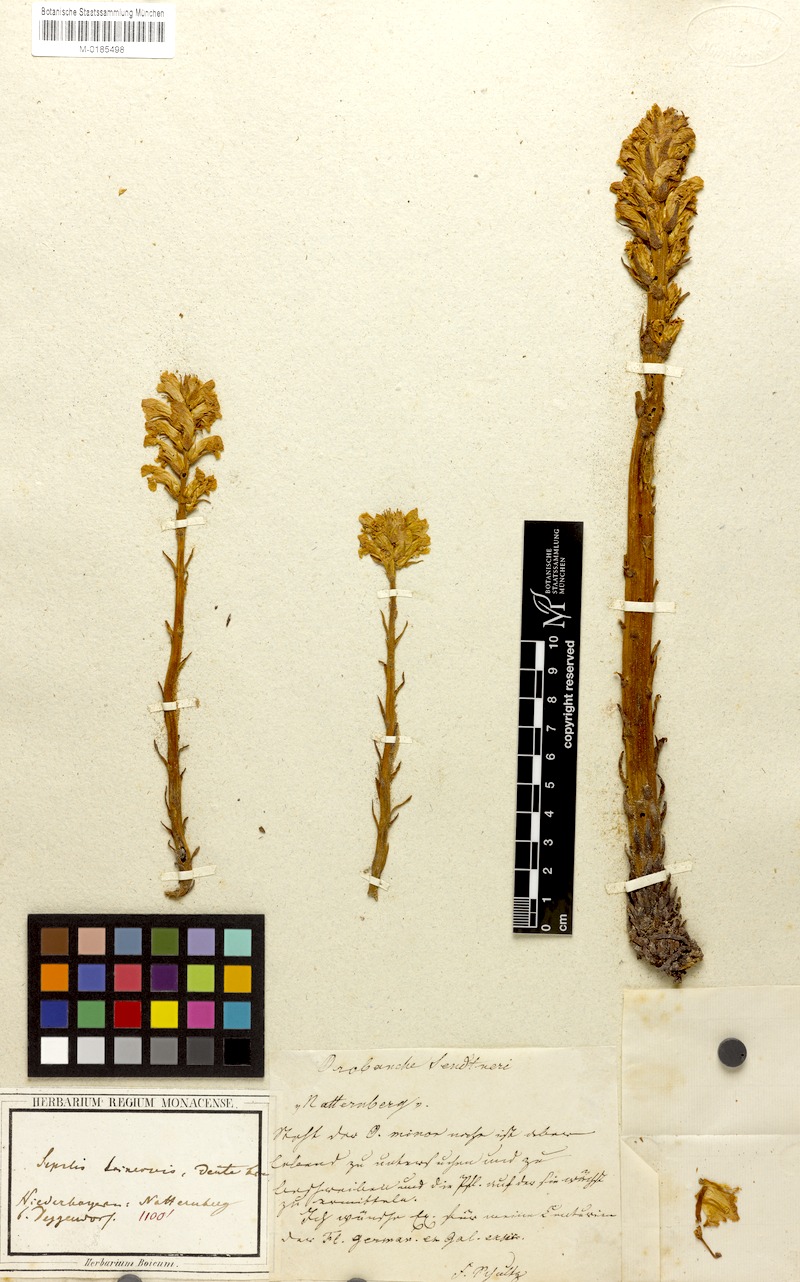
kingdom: Plantae
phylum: Tracheophyta
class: Magnoliopsida
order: Lamiales
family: Orobanchaceae
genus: Orobanche
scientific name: Orobanche minor
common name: Common broomrape
